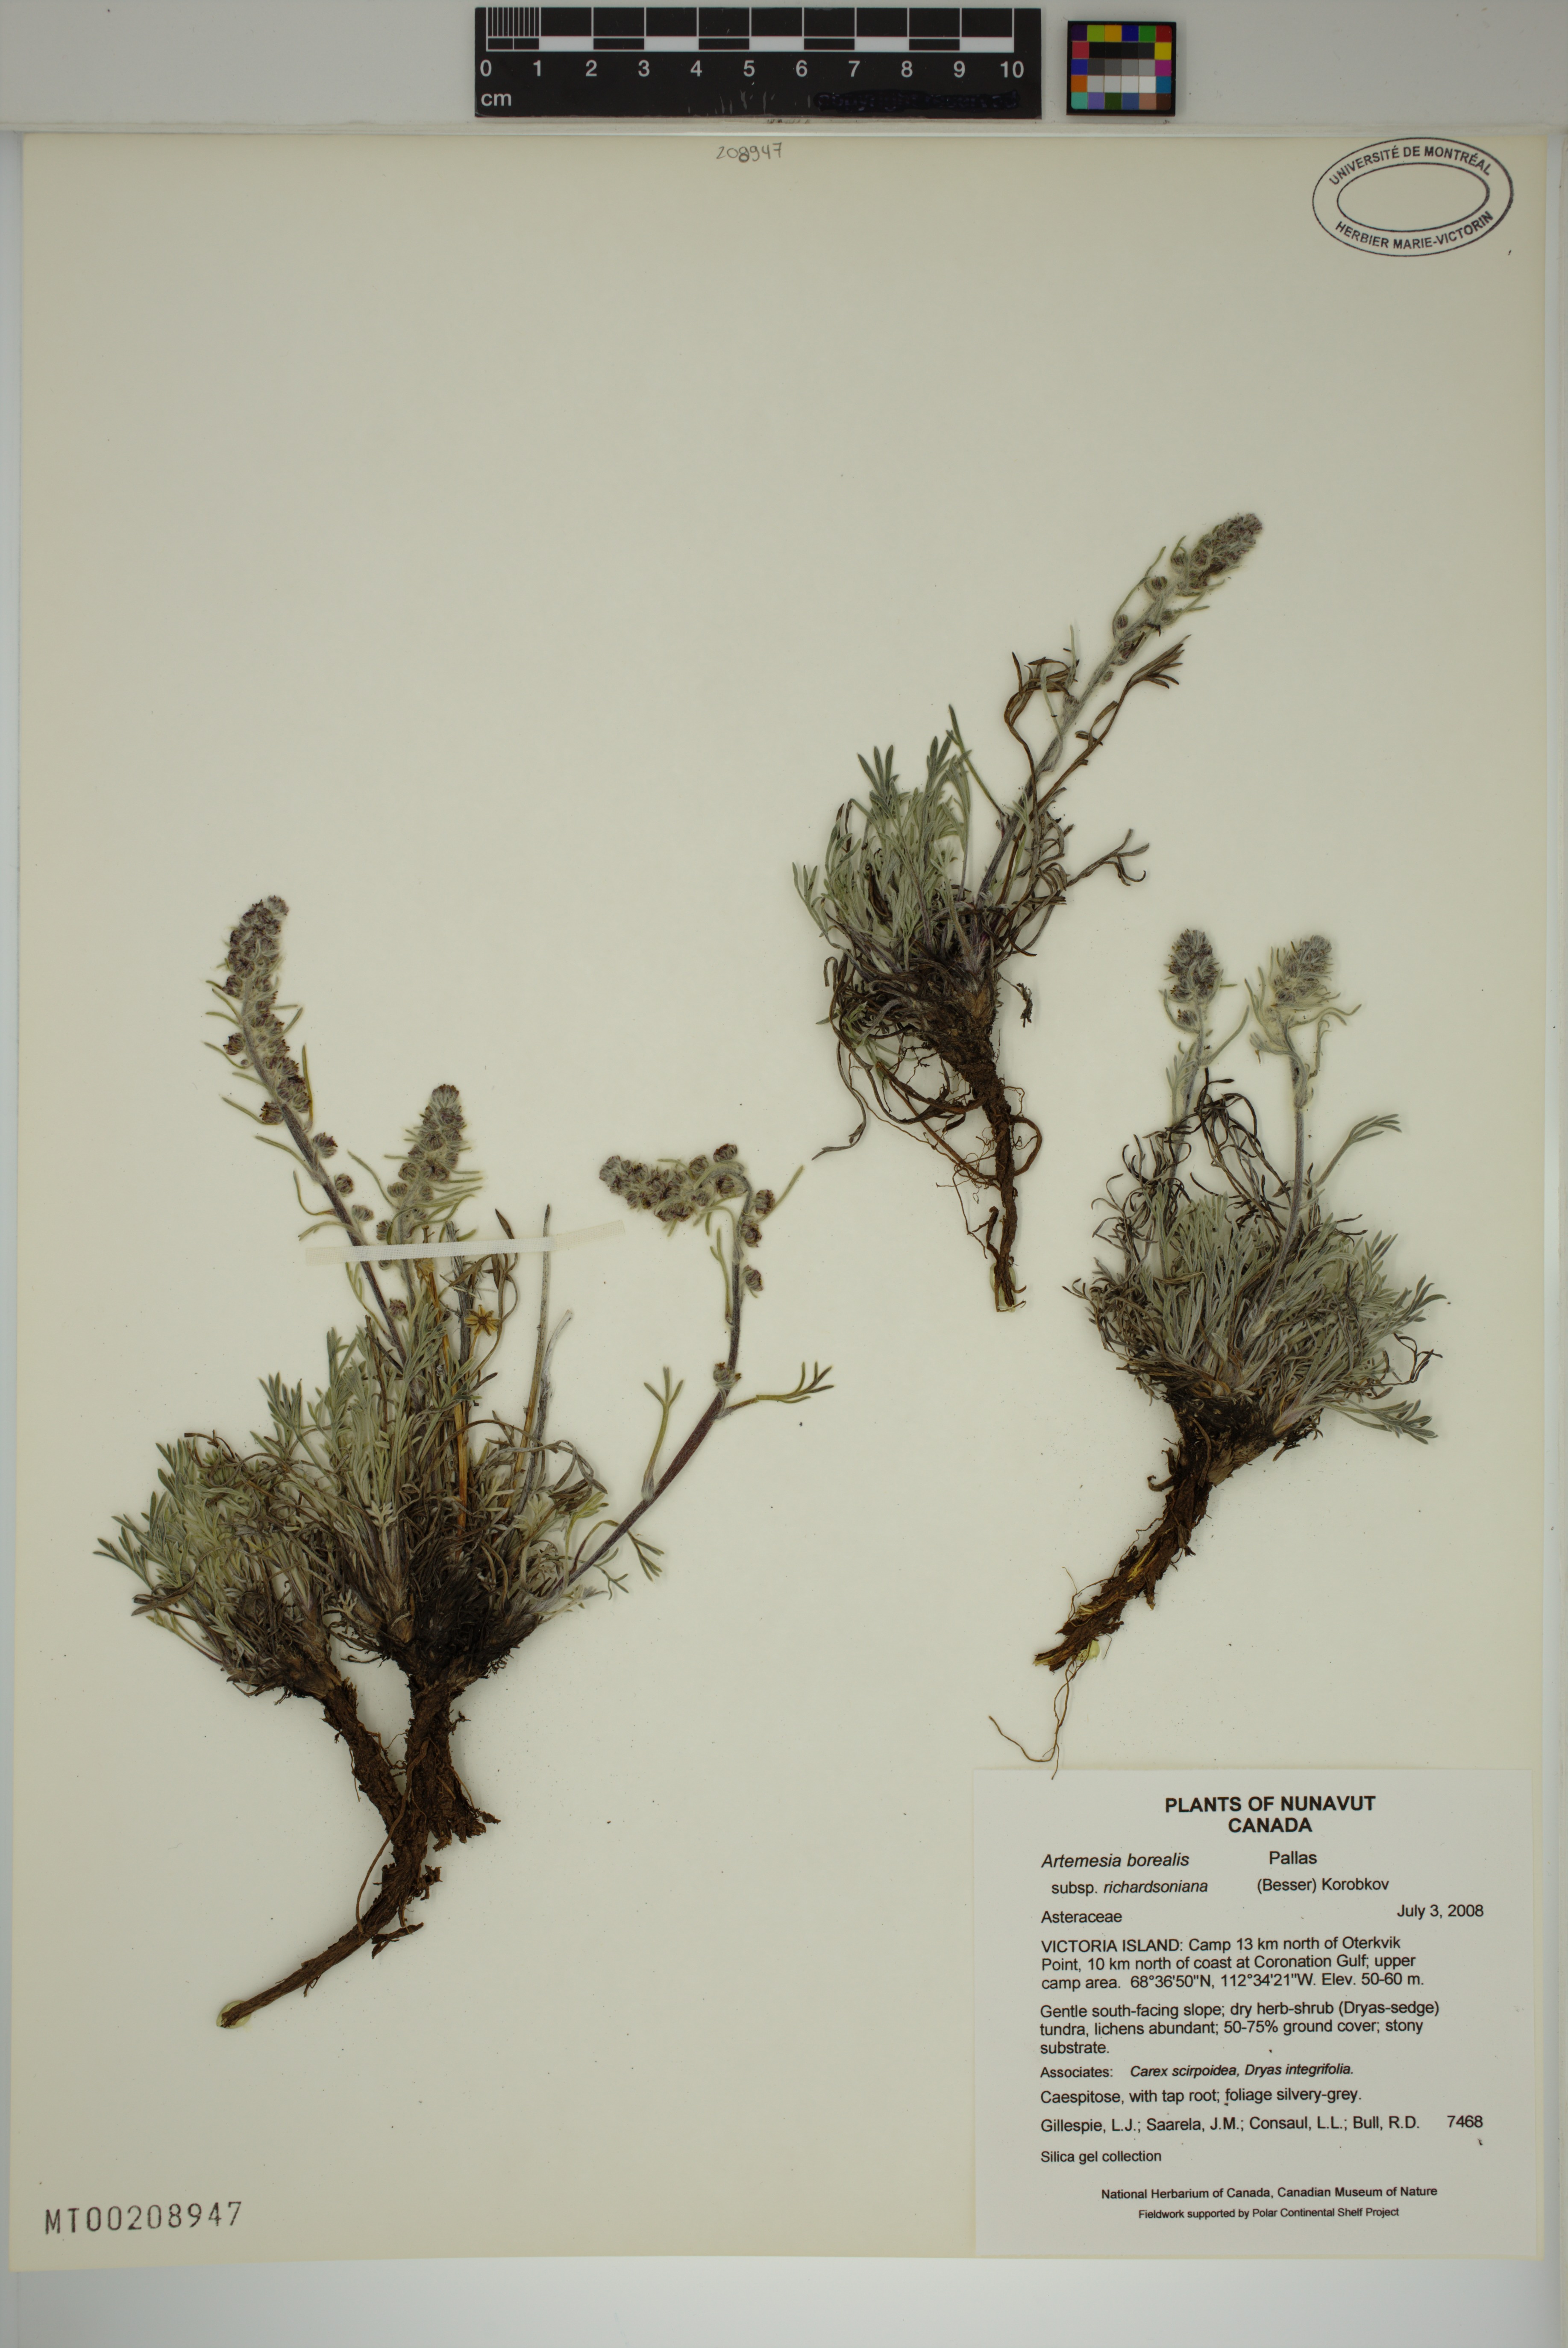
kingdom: Plantae
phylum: Tracheophyta
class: Magnoliopsida
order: Asterales
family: Asteraceae
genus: Artemisia
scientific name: Artemisia borealis
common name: Boreal sage
